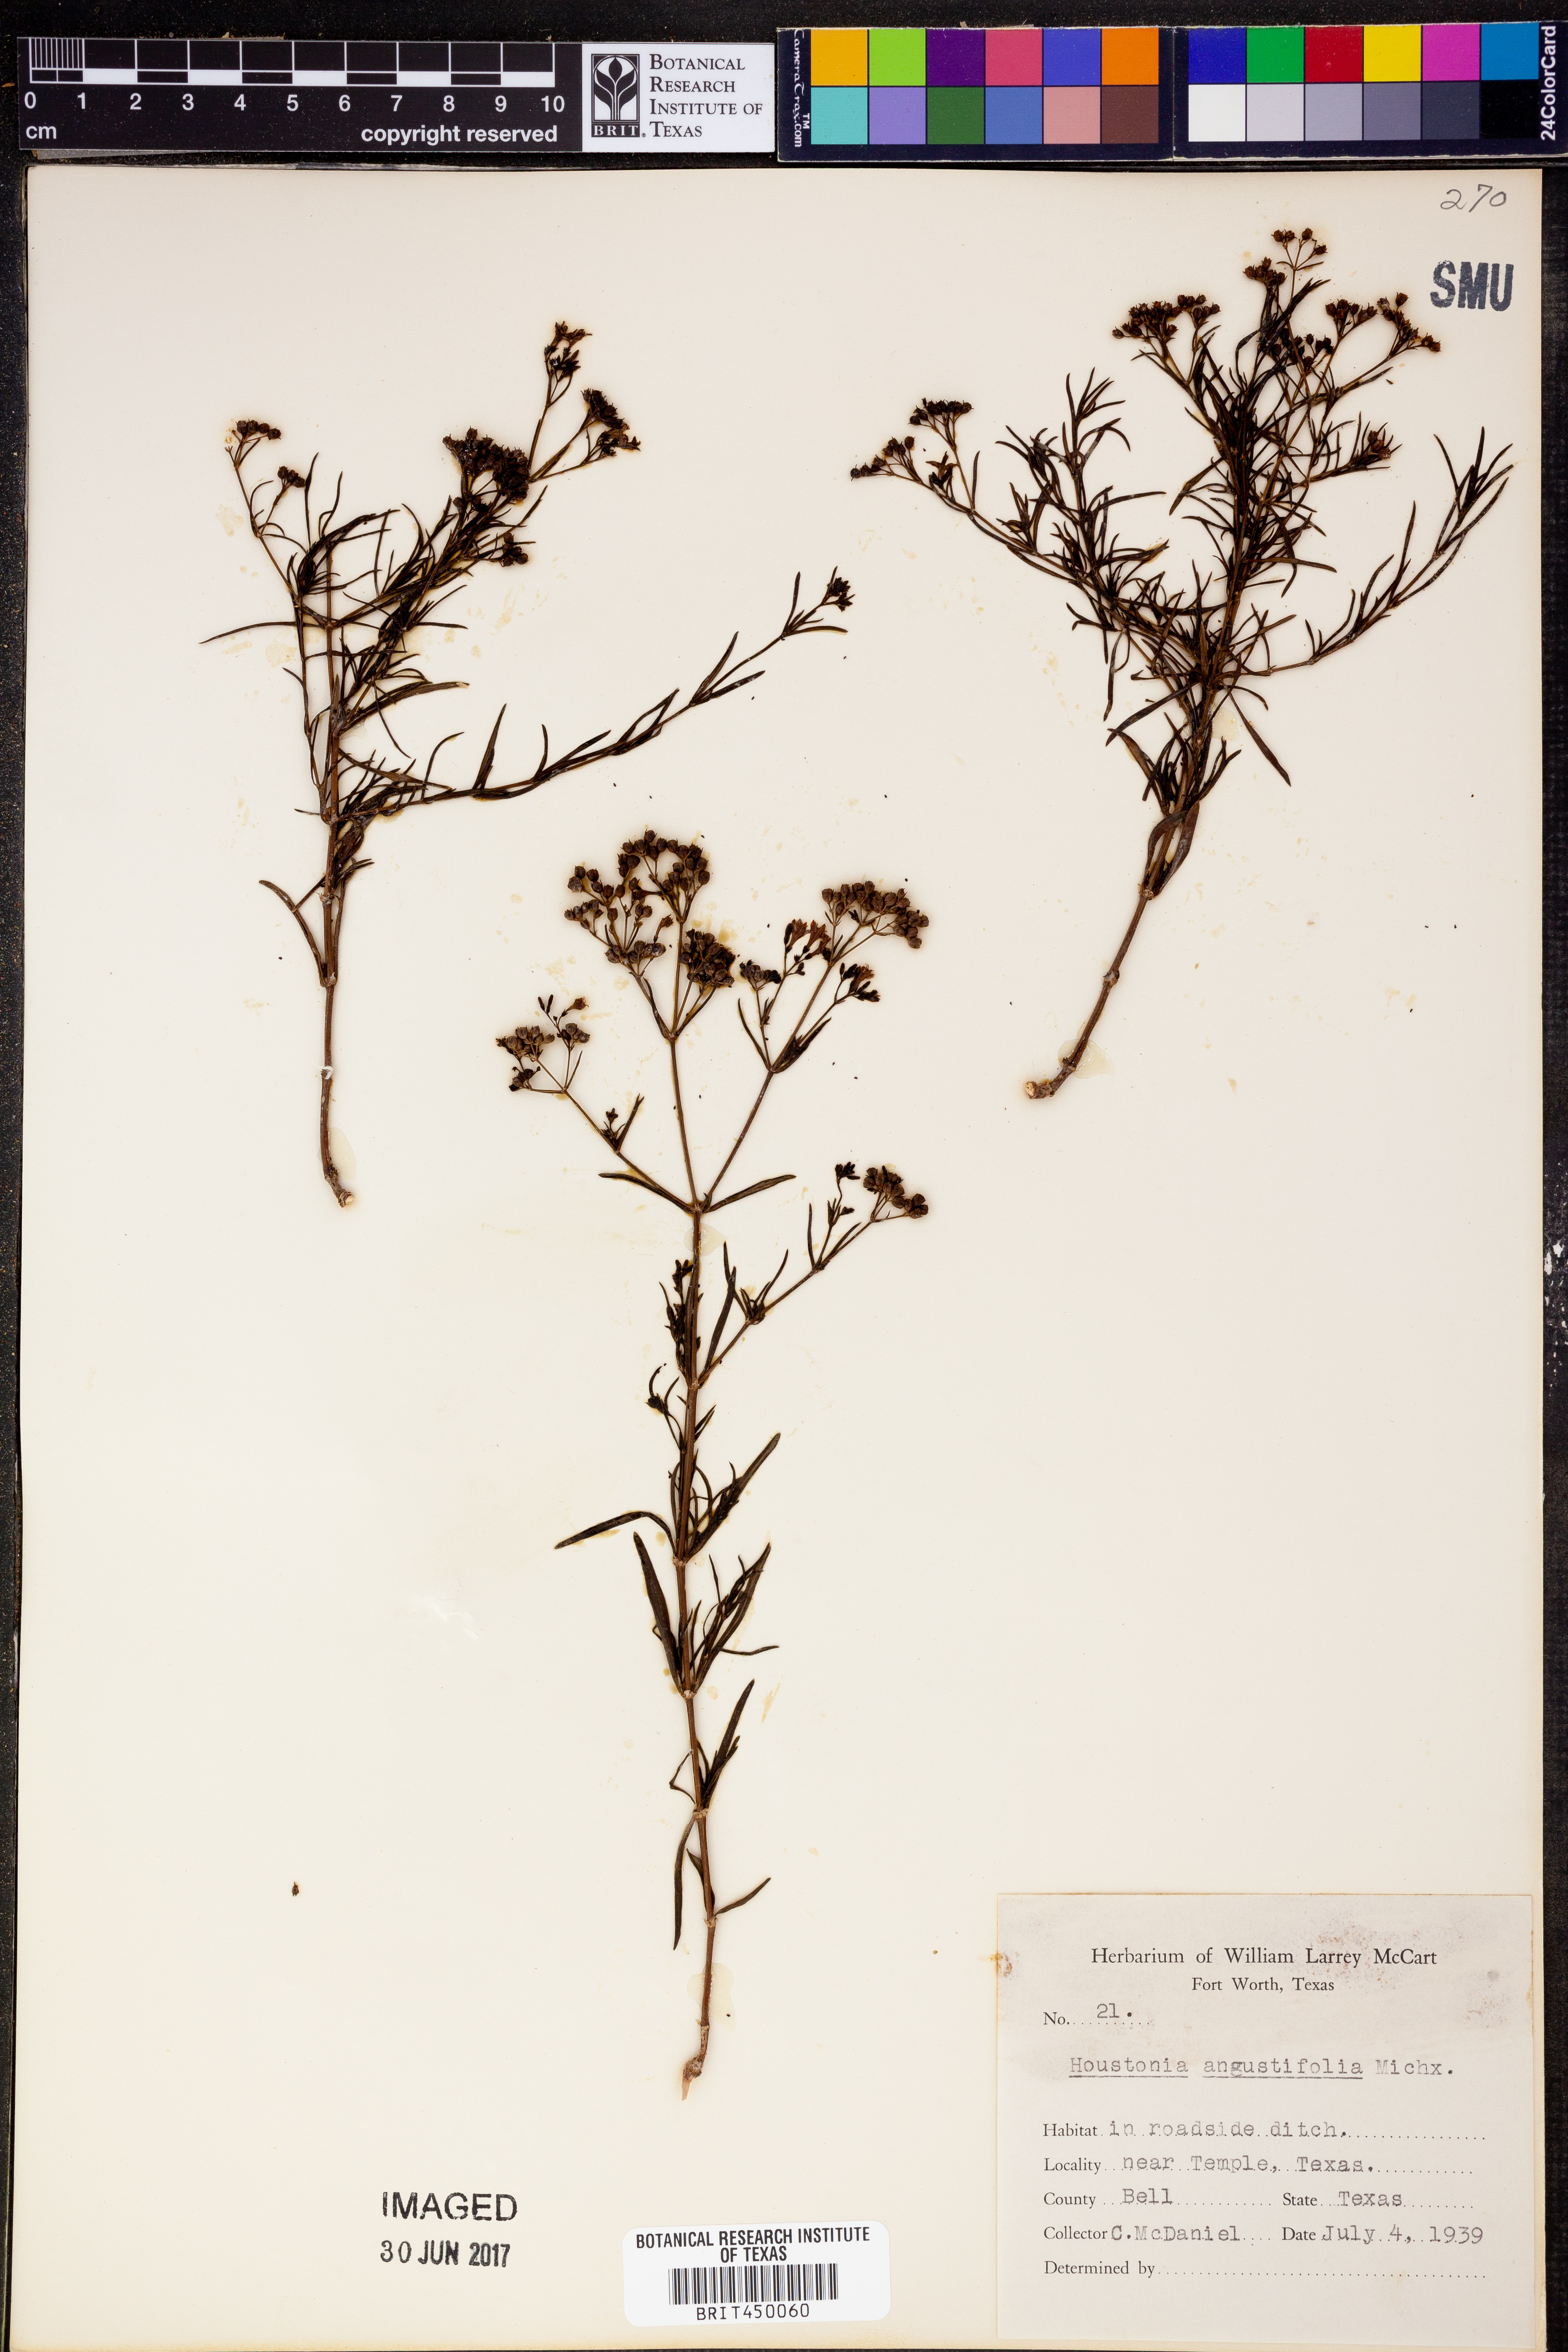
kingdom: Plantae
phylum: Tracheophyta
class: Magnoliopsida
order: Gentianales
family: Rubiaceae
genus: Stenaria
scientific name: Stenaria nigricans
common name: Diamondflowers
